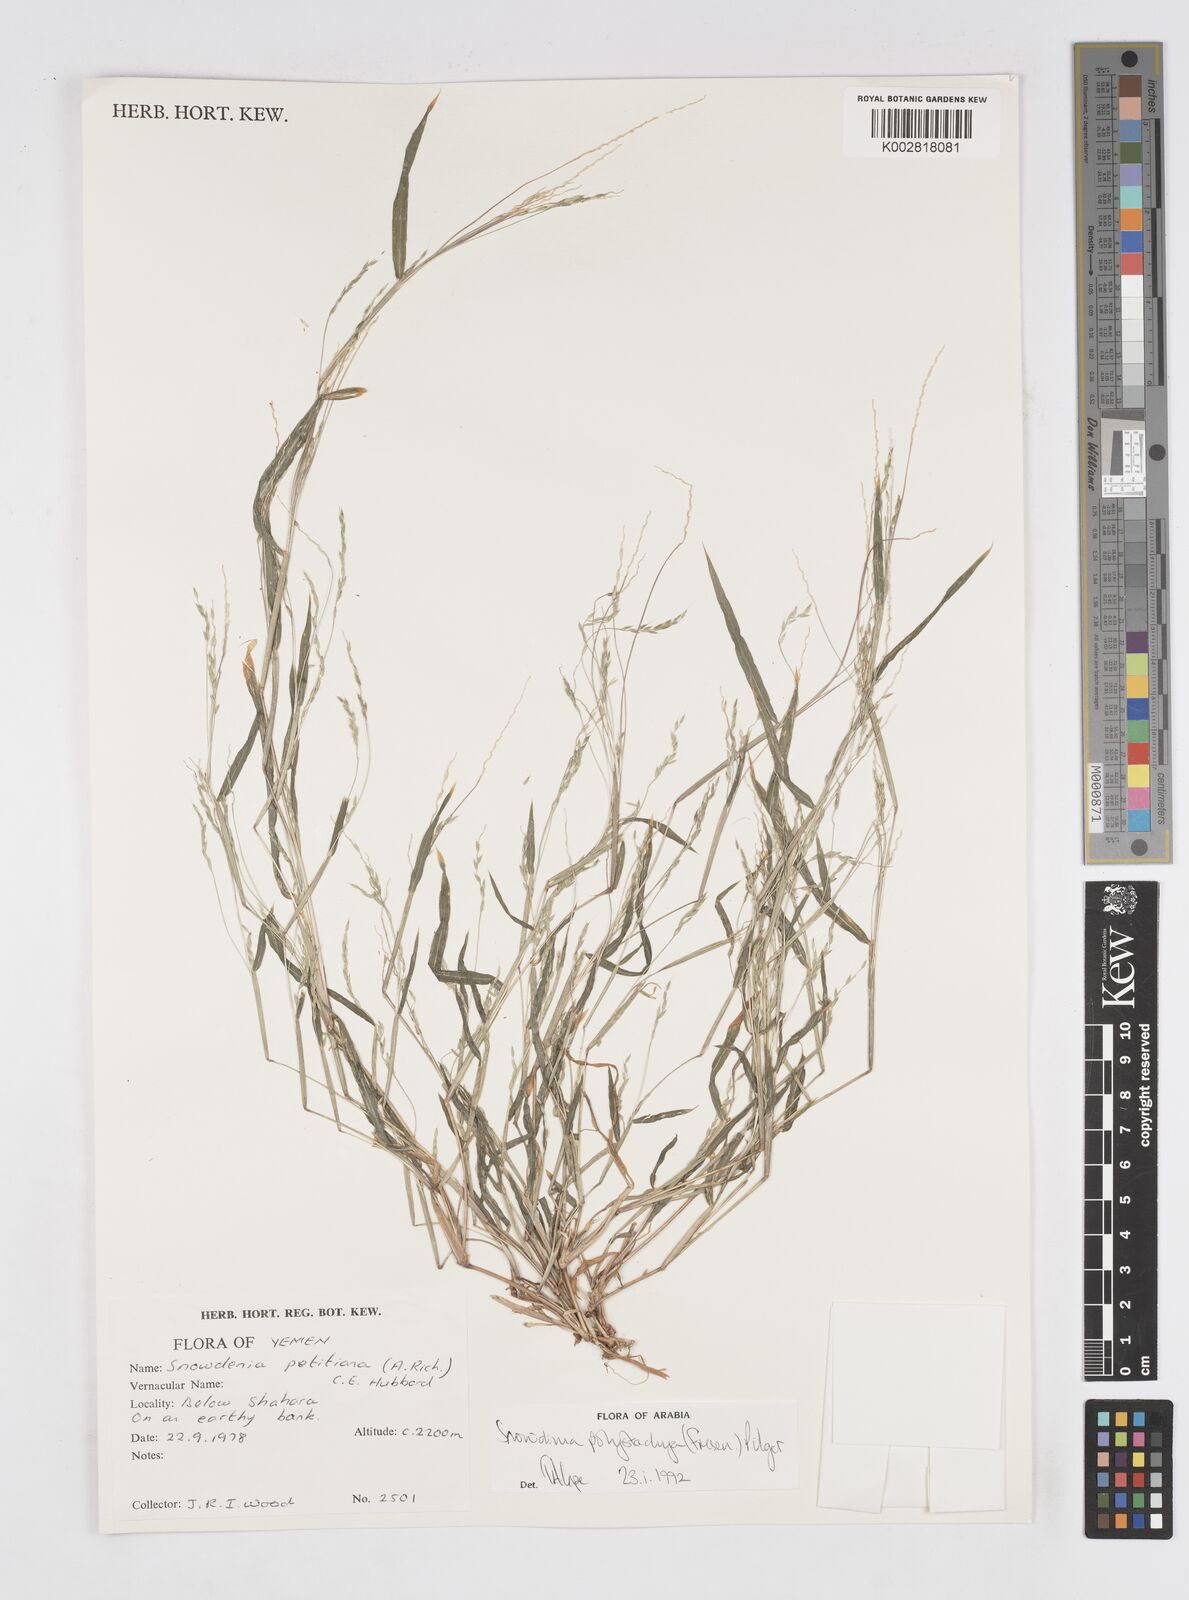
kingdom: Plantae
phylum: Tracheophyta
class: Liliopsida
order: Poales
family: Poaceae
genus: Snowdenia
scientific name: Snowdenia polystachya
